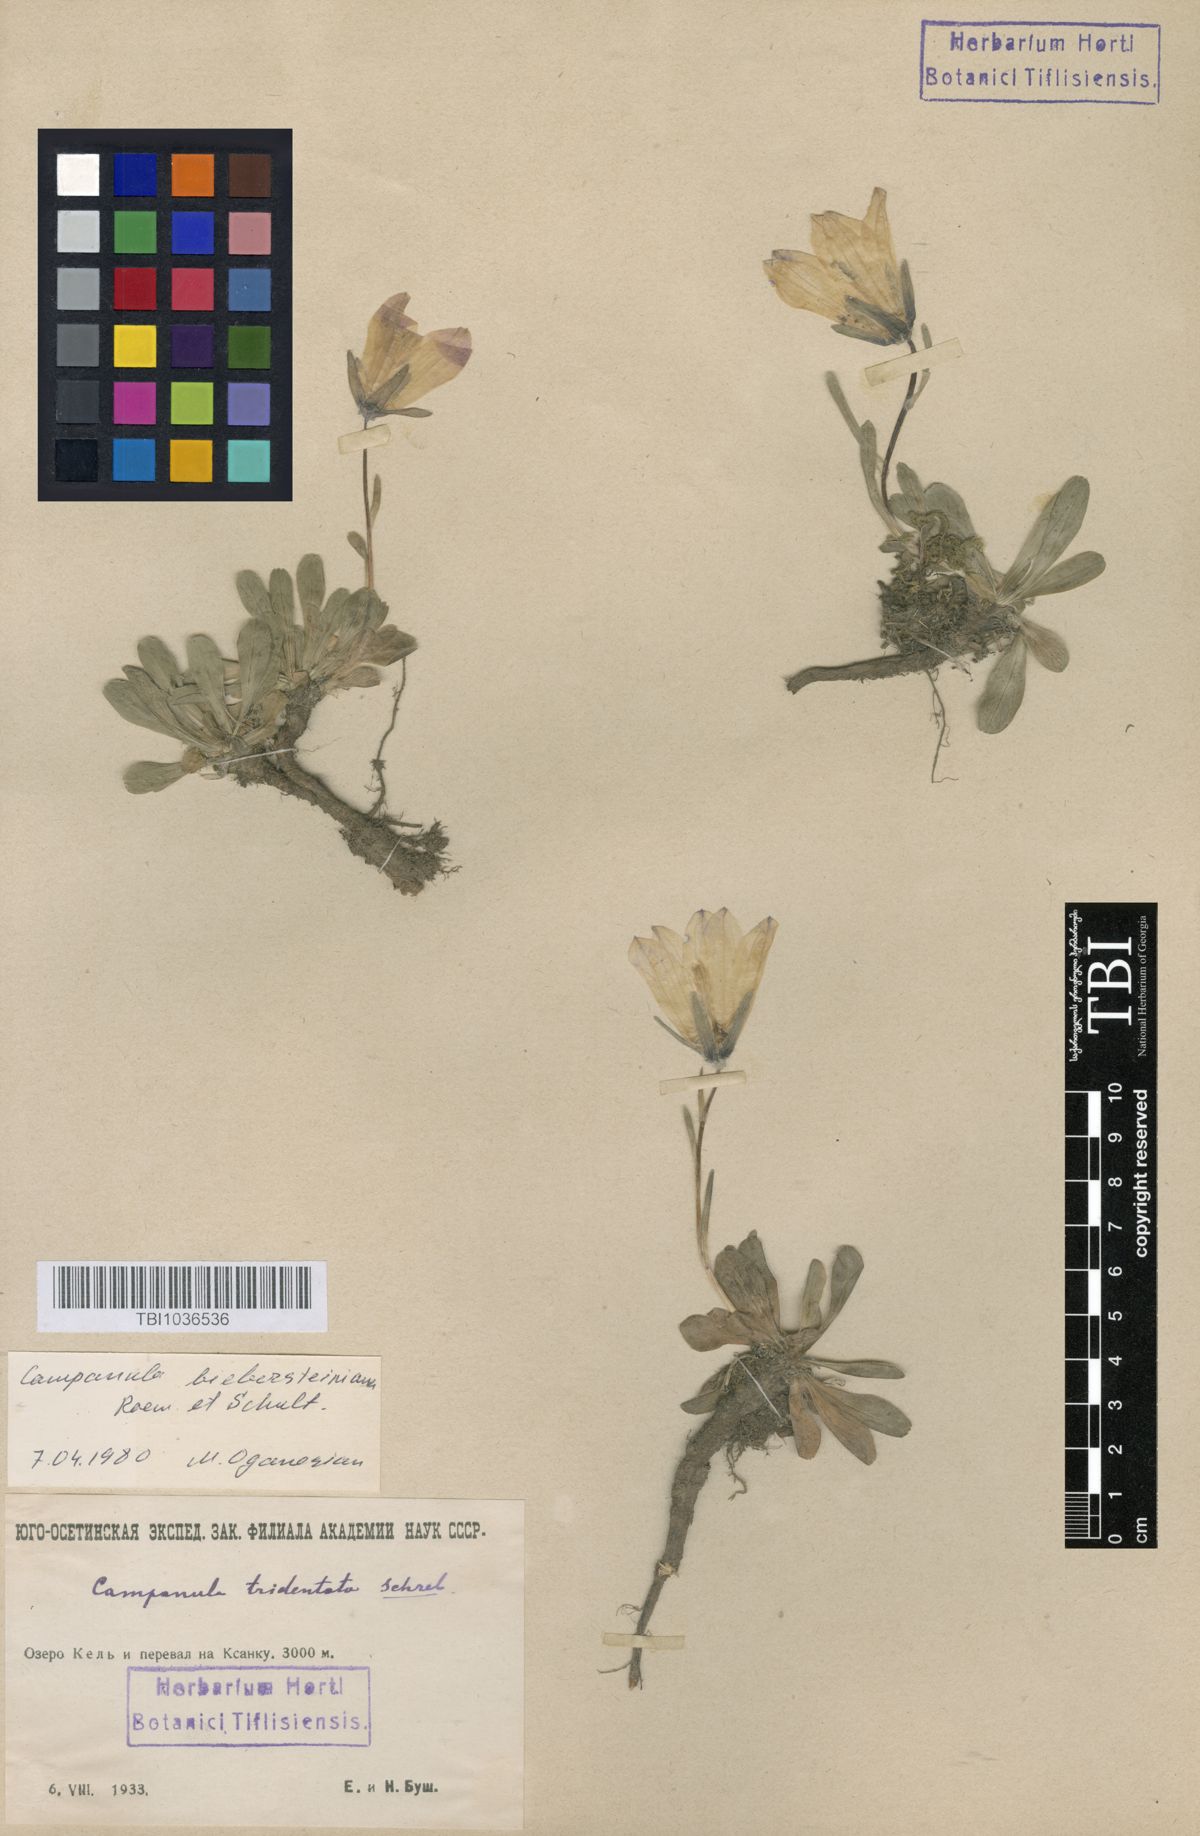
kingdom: Plantae
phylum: Tracheophyta
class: Magnoliopsida
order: Asterales
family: Campanulaceae
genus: Campanula
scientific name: Campanula tridentata
